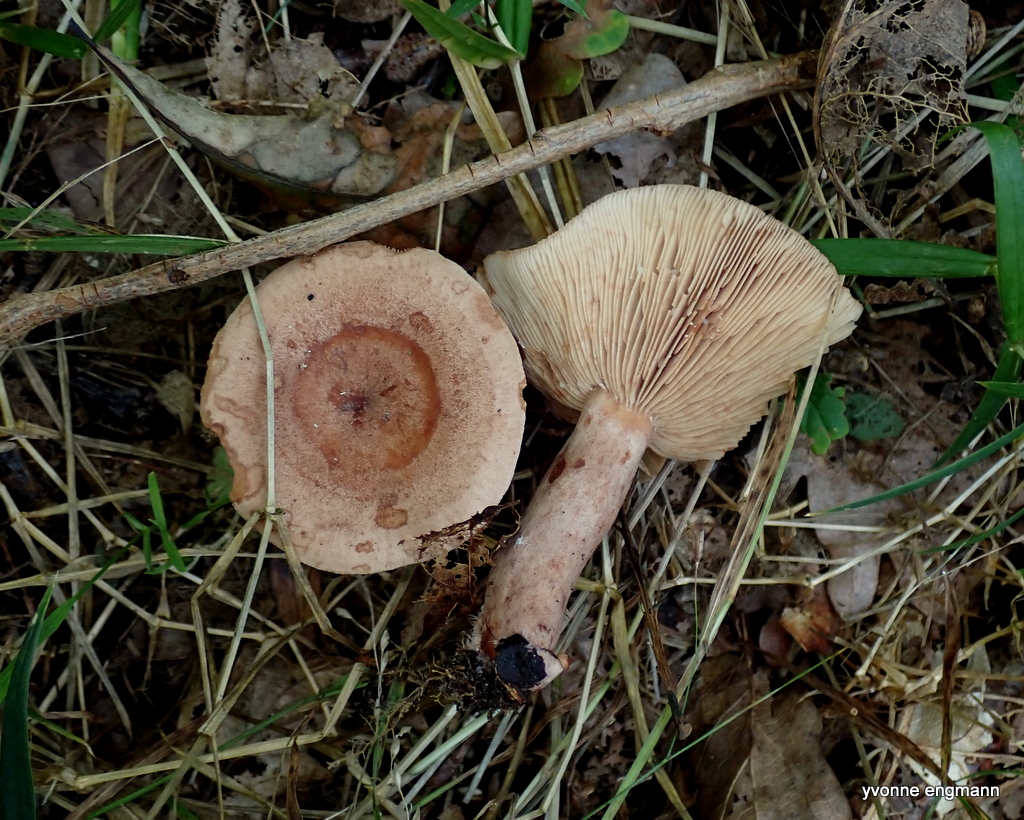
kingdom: Fungi
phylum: Basidiomycota
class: Agaricomycetes
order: Russulales
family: Russulaceae
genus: Lactarius
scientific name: Lactarius quietus
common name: ege-mælkehat
